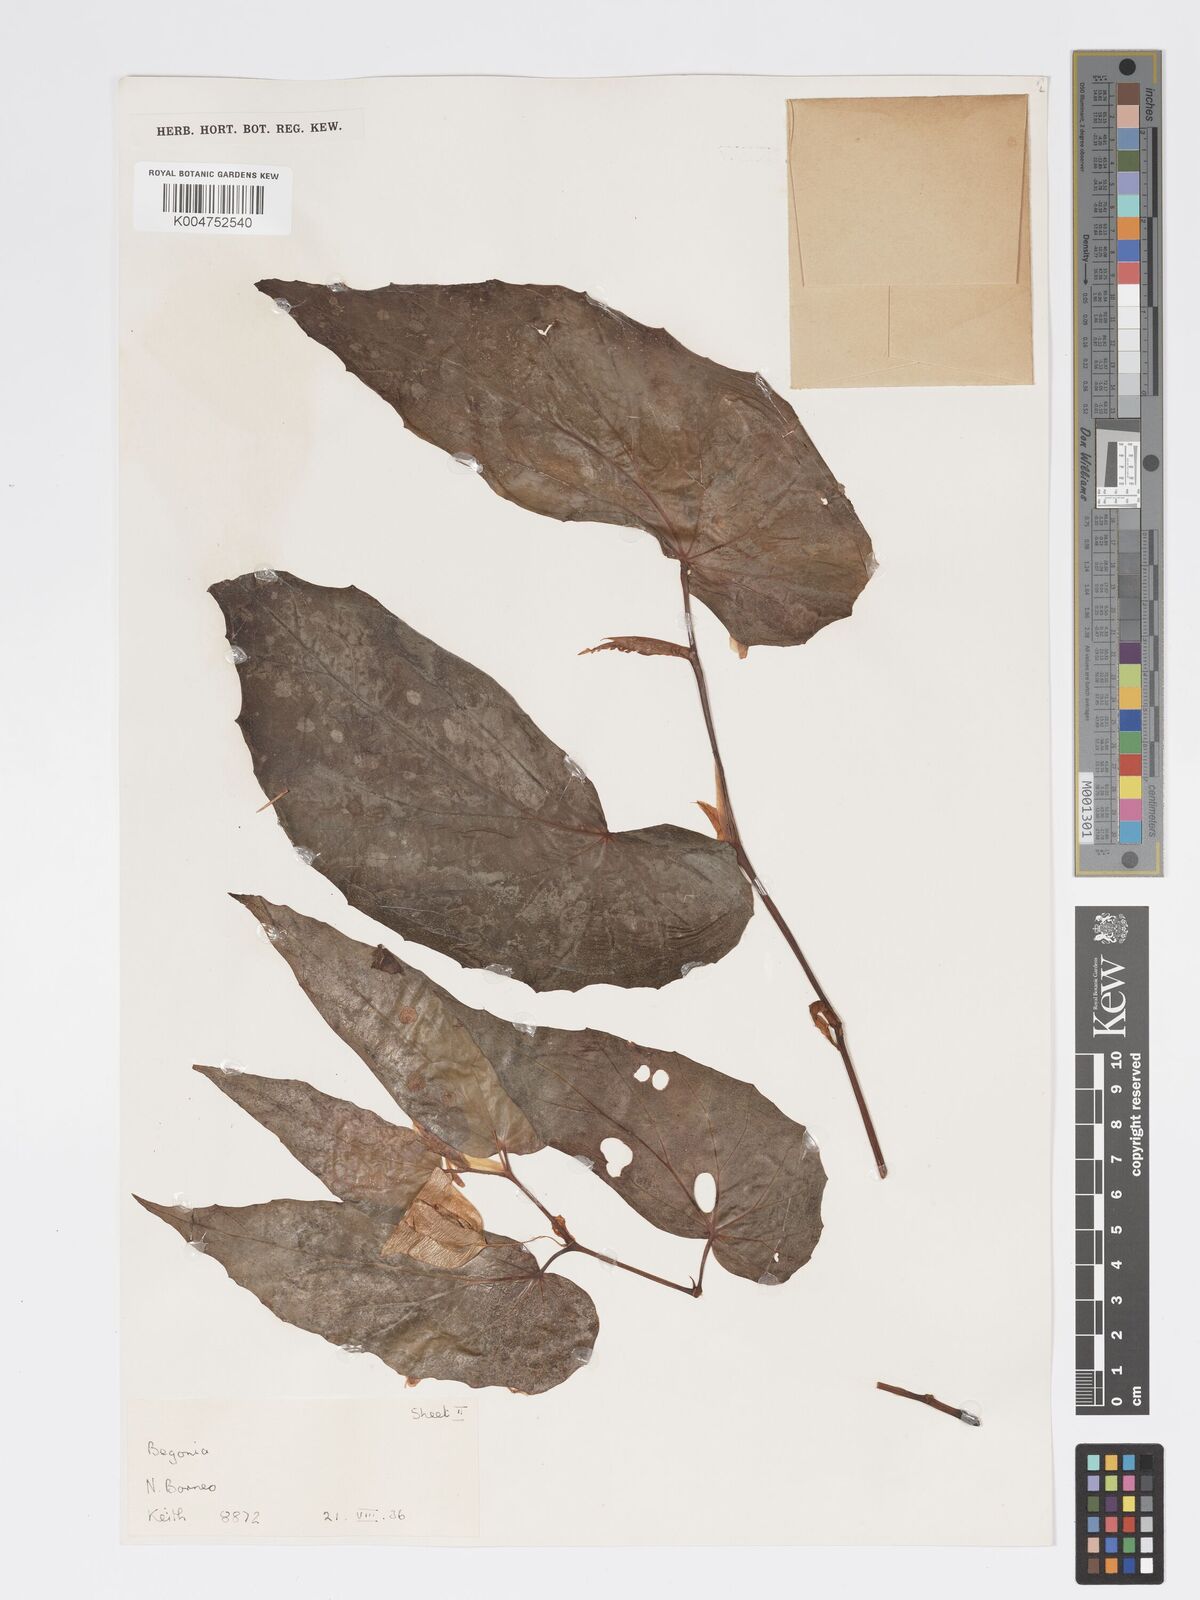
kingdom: Plantae
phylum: Tracheophyta
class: Magnoliopsida
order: Cucurbitales
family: Begoniaceae
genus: Begonia
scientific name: Begonia pryeriana
